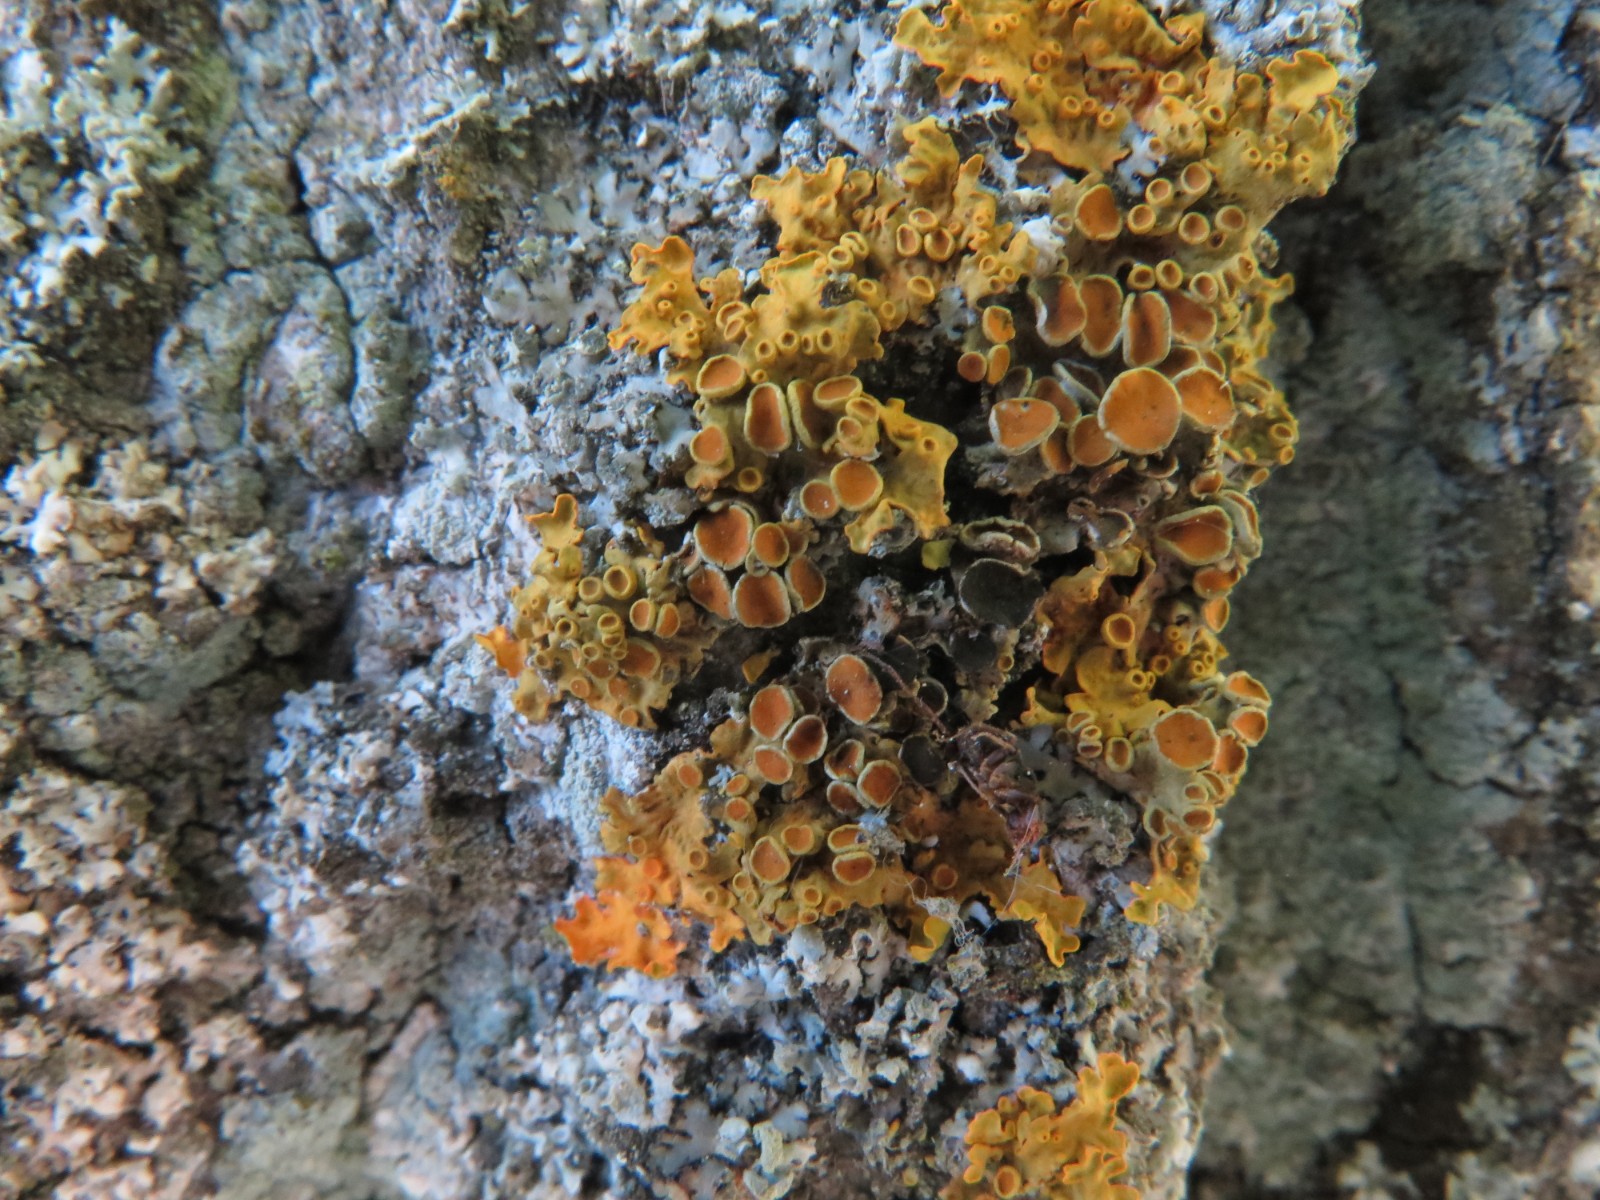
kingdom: Fungi
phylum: Ascomycota
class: Dothideomycetes
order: Mycosphaerellales
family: Teratosphaeriaceae
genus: Xanthoriicola
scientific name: Xanthoriicola physciae
